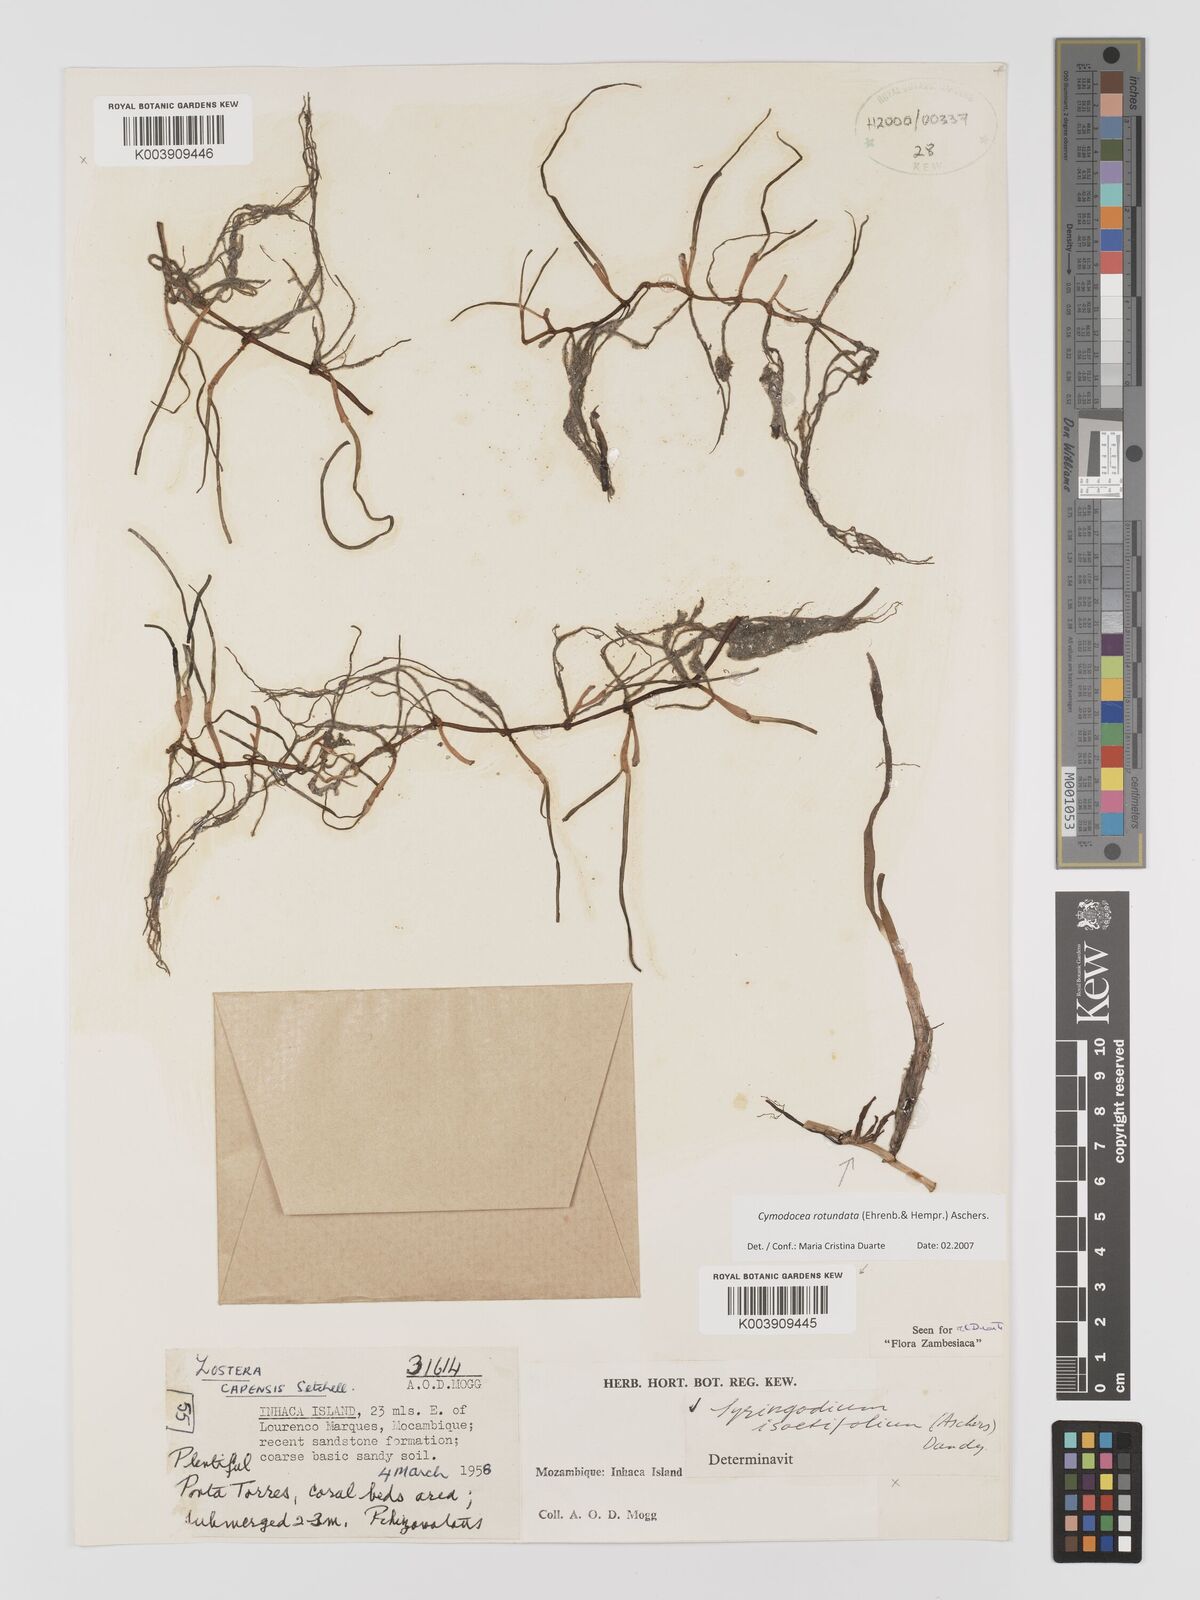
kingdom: Plantae
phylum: Tracheophyta
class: Liliopsida
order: Alismatales
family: Cymodoceaceae
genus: Cymodocea
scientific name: Cymodocea rotundata
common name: Species code: cr
